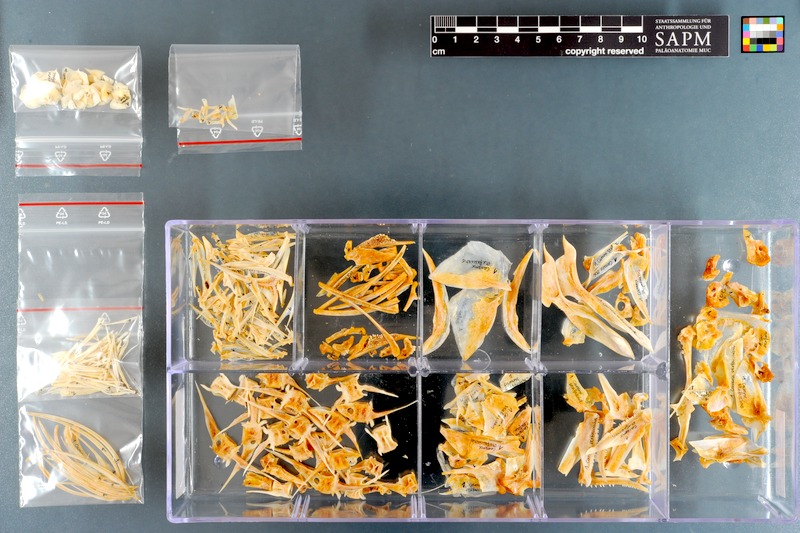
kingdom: Animalia
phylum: Chordata
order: Perciformes
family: Carangidae
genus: Caranx
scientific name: Caranx sexfasciatus
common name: Bigeye trevally
